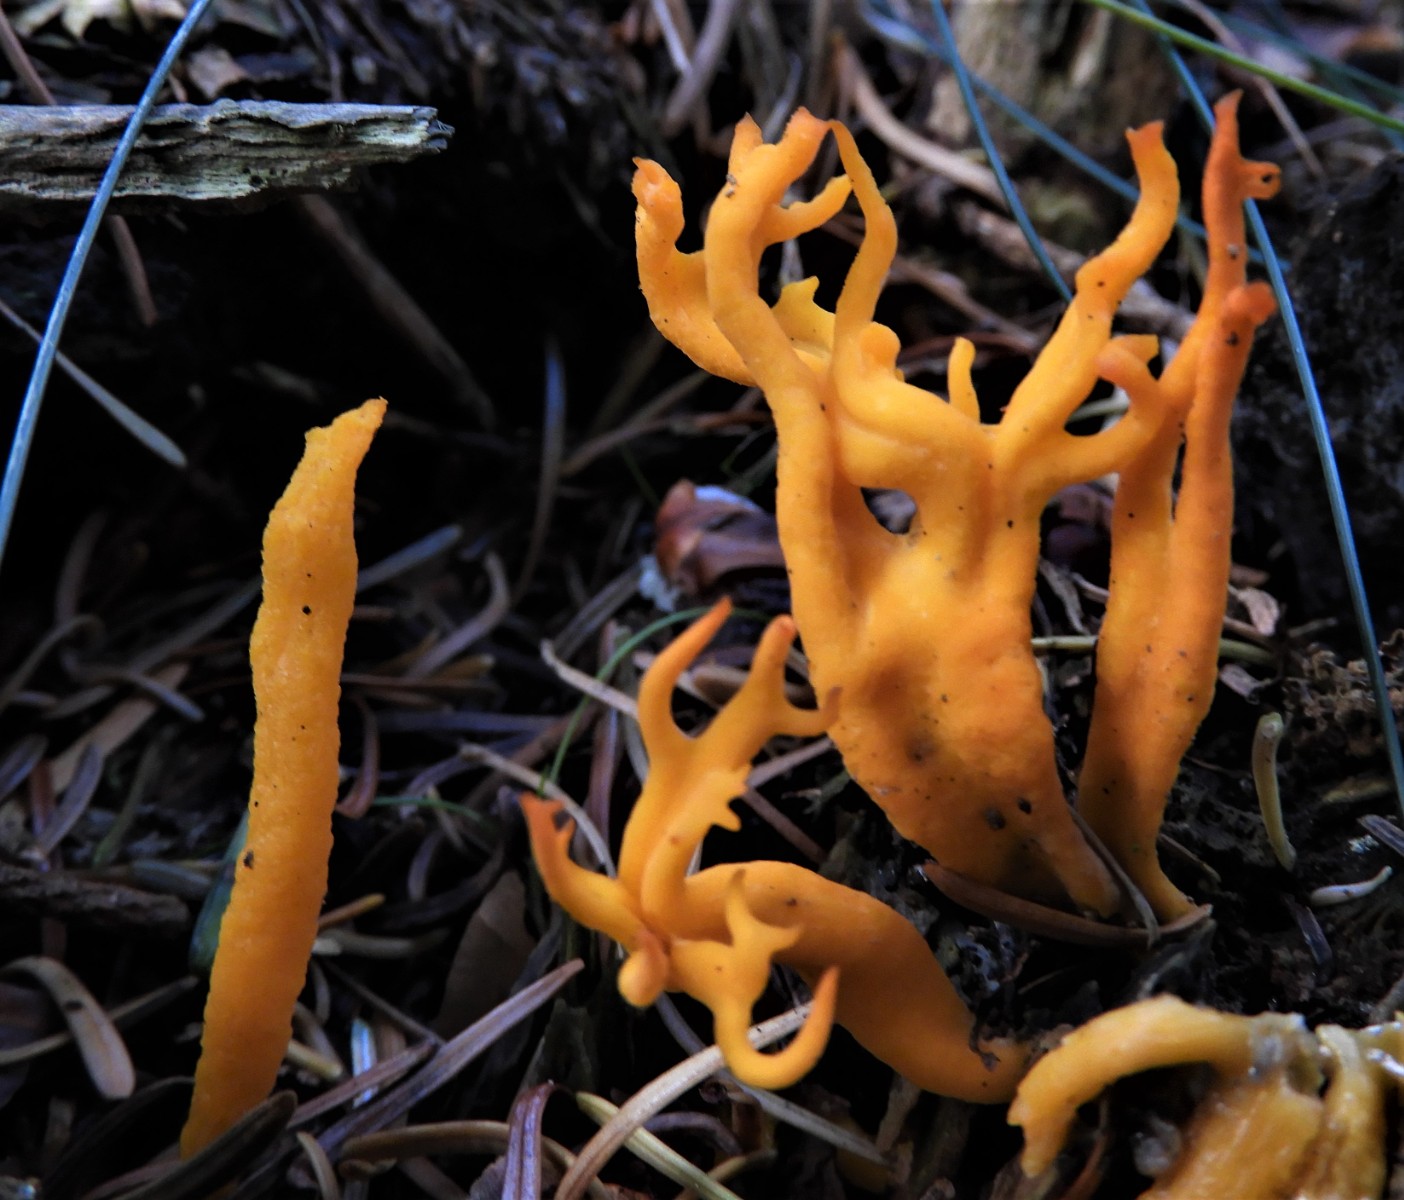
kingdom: Fungi
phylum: Basidiomycota
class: Dacrymycetes
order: Dacrymycetales
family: Dacrymycetaceae
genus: Calocera
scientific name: Calocera viscosa
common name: almindelig guldgaffel
